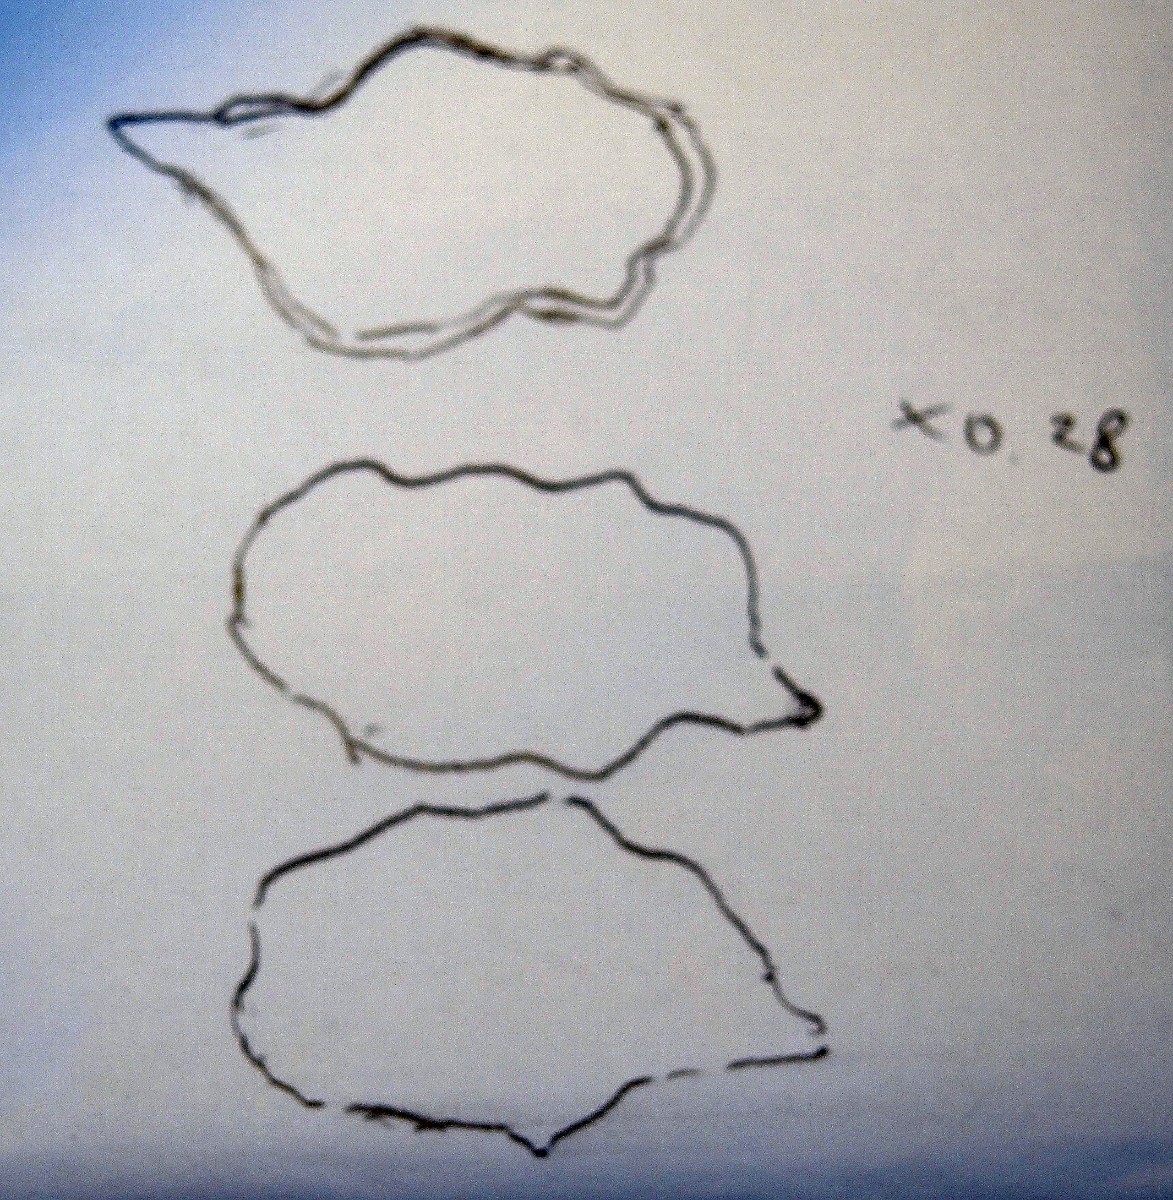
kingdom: Fungi
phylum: Basidiomycota
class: Agaricomycetes
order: Agaricales
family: Entolomataceae
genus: Entoloma
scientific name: Entoloma ollare
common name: muse-rødblad
